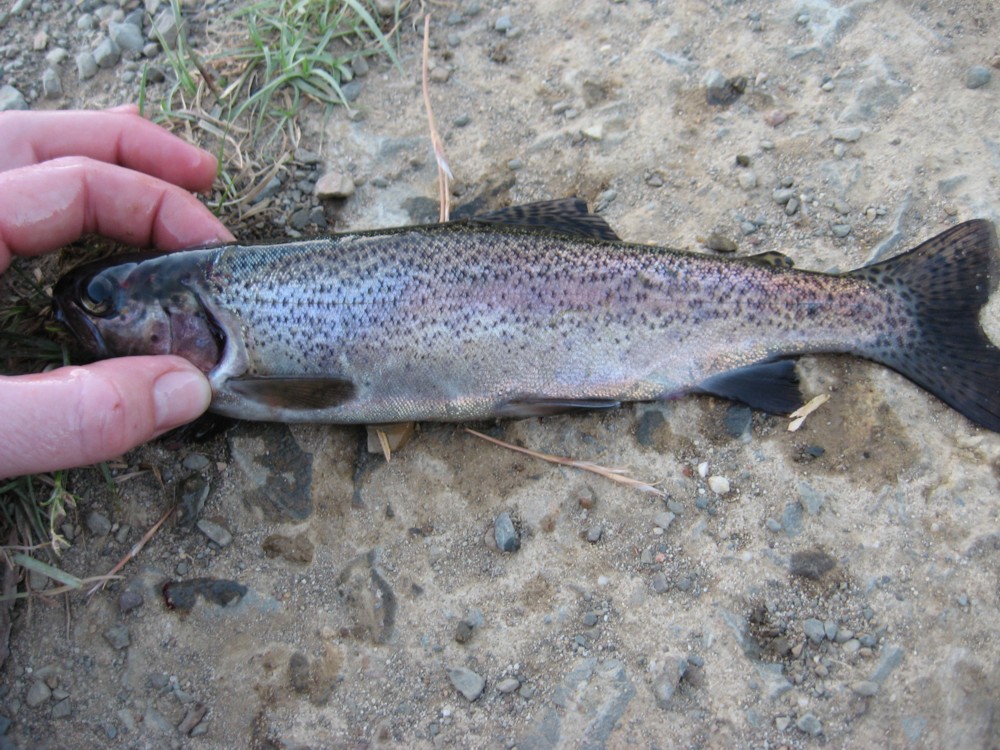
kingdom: Animalia
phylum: Chordata
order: Salmoniformes
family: Salmonidae
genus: Oncorhynchus
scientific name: Oncorhynchus mykiss
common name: Rainbow trout
